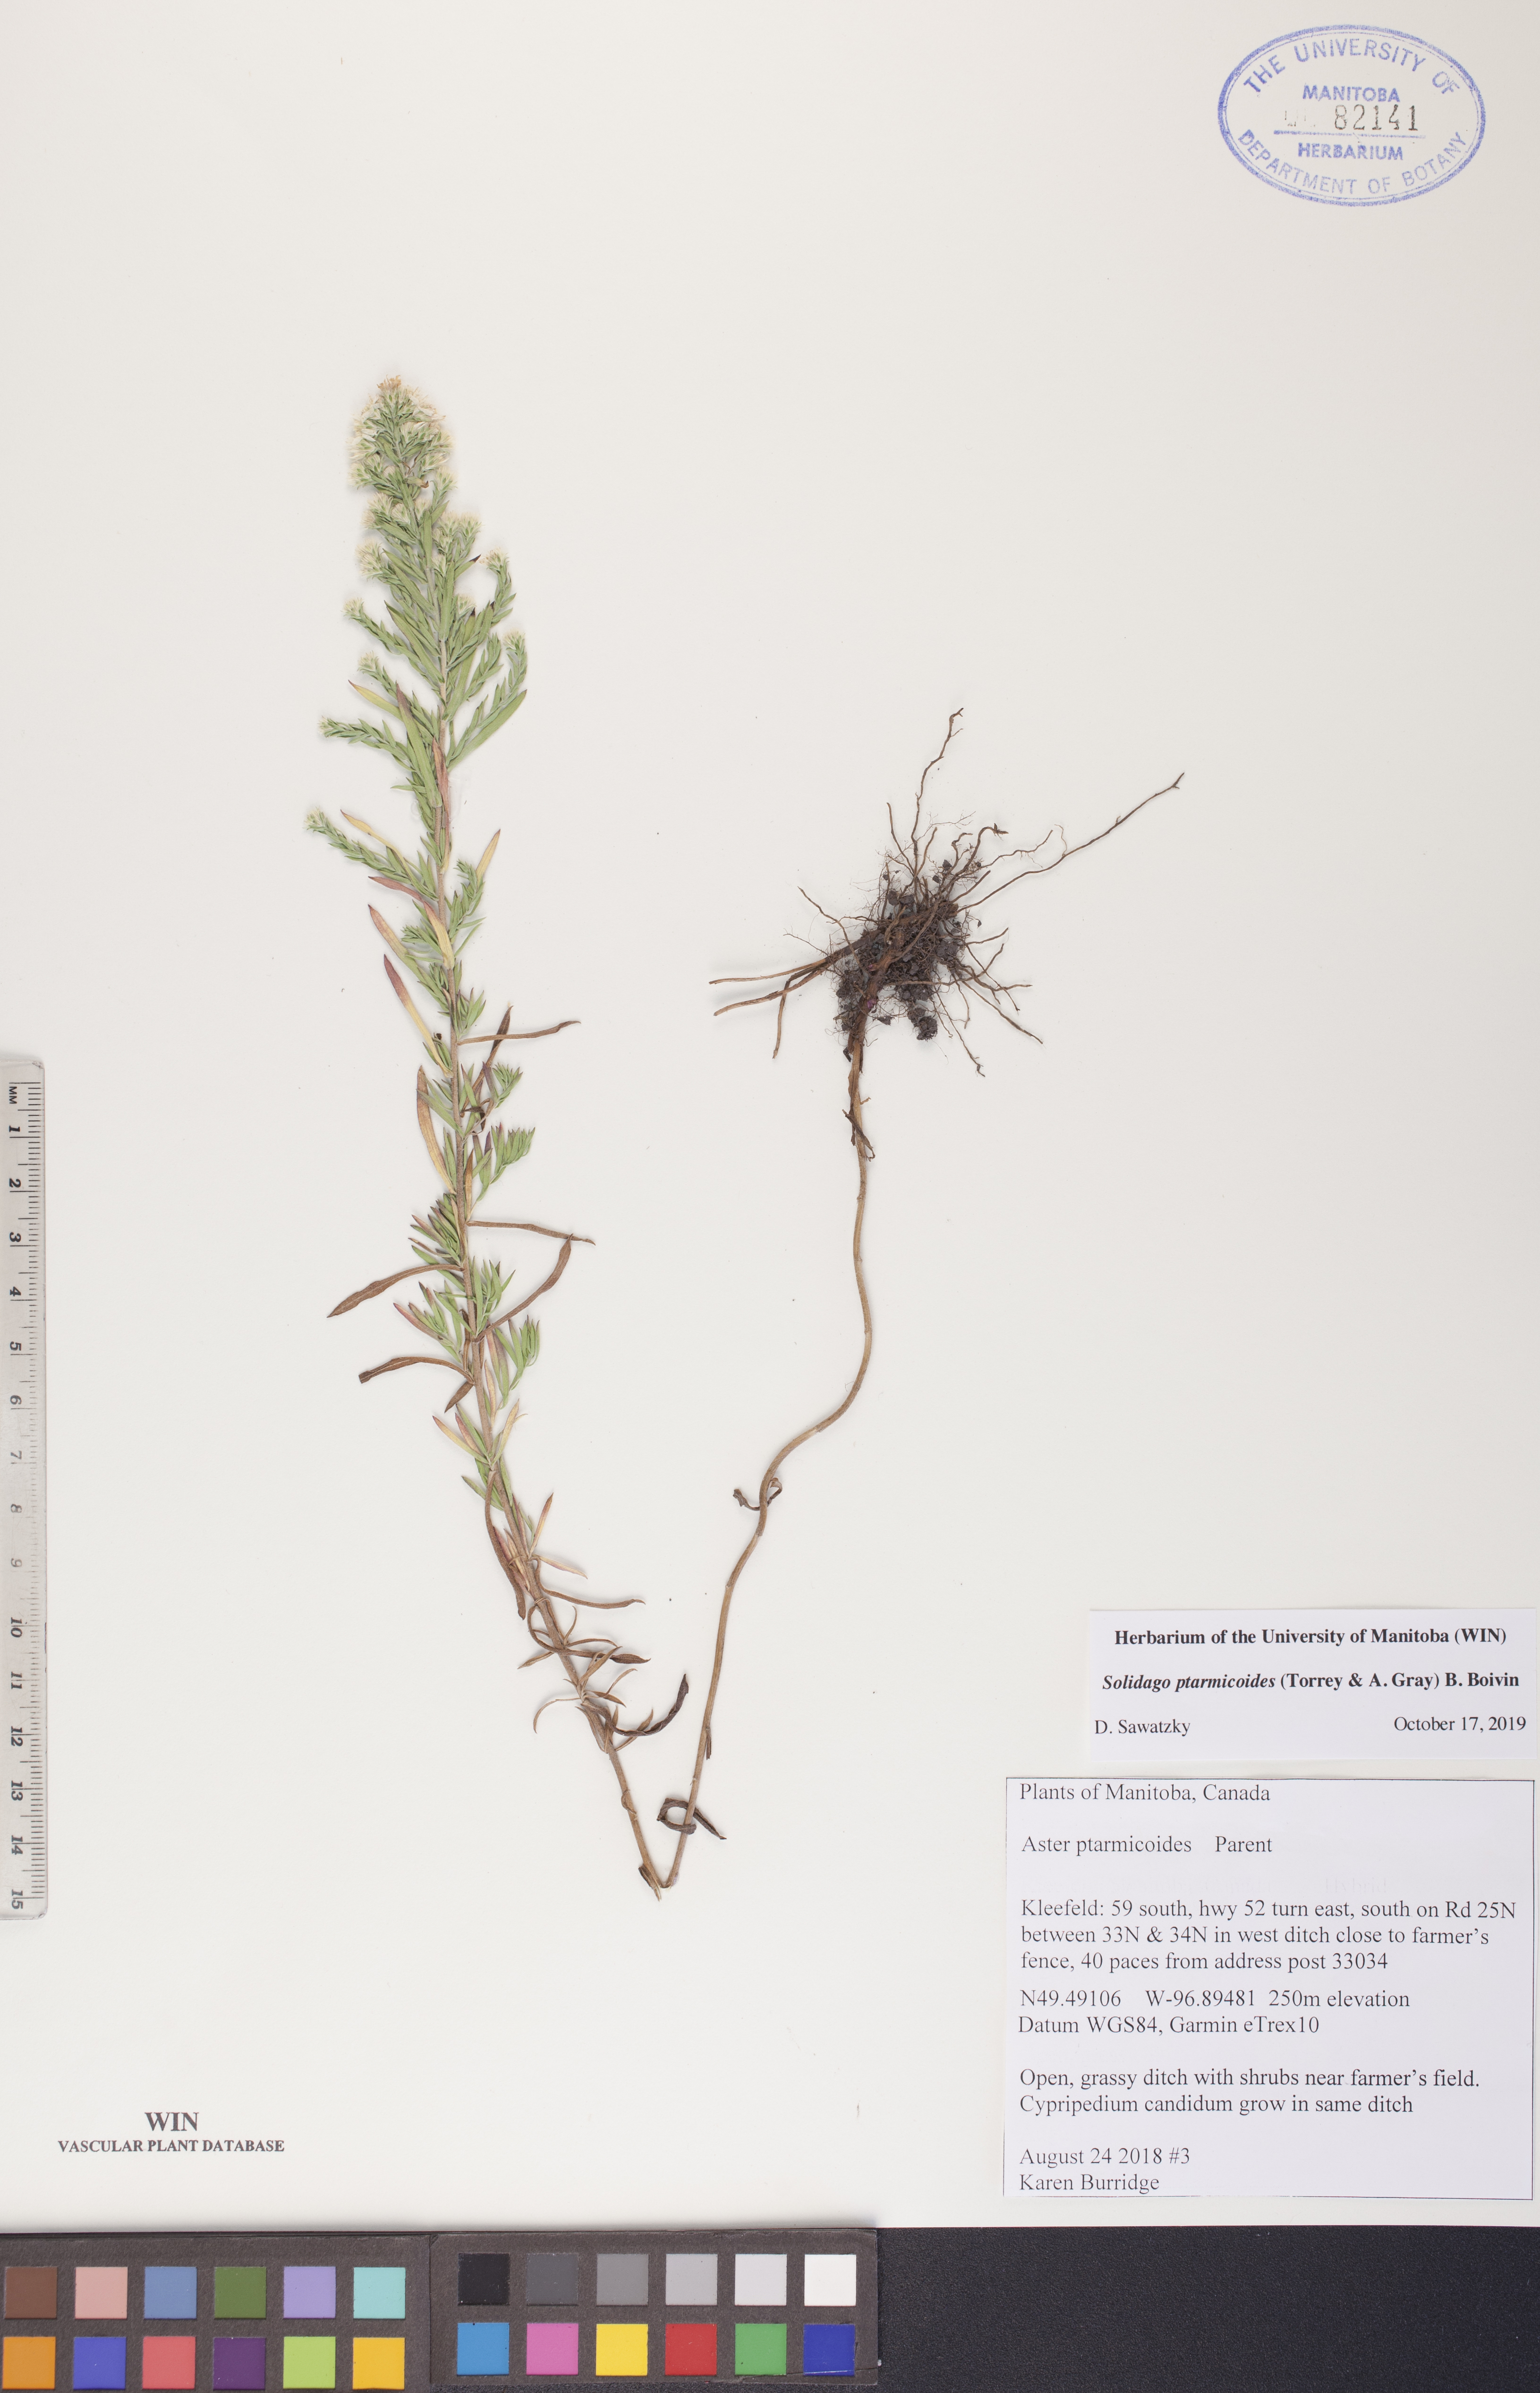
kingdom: Plantae
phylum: Tracheophyta
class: Magnoliopsida
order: Asterales
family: Asteraceae
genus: Solidago
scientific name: Solidago ptarmicoides
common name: White flat-top goldenrod
